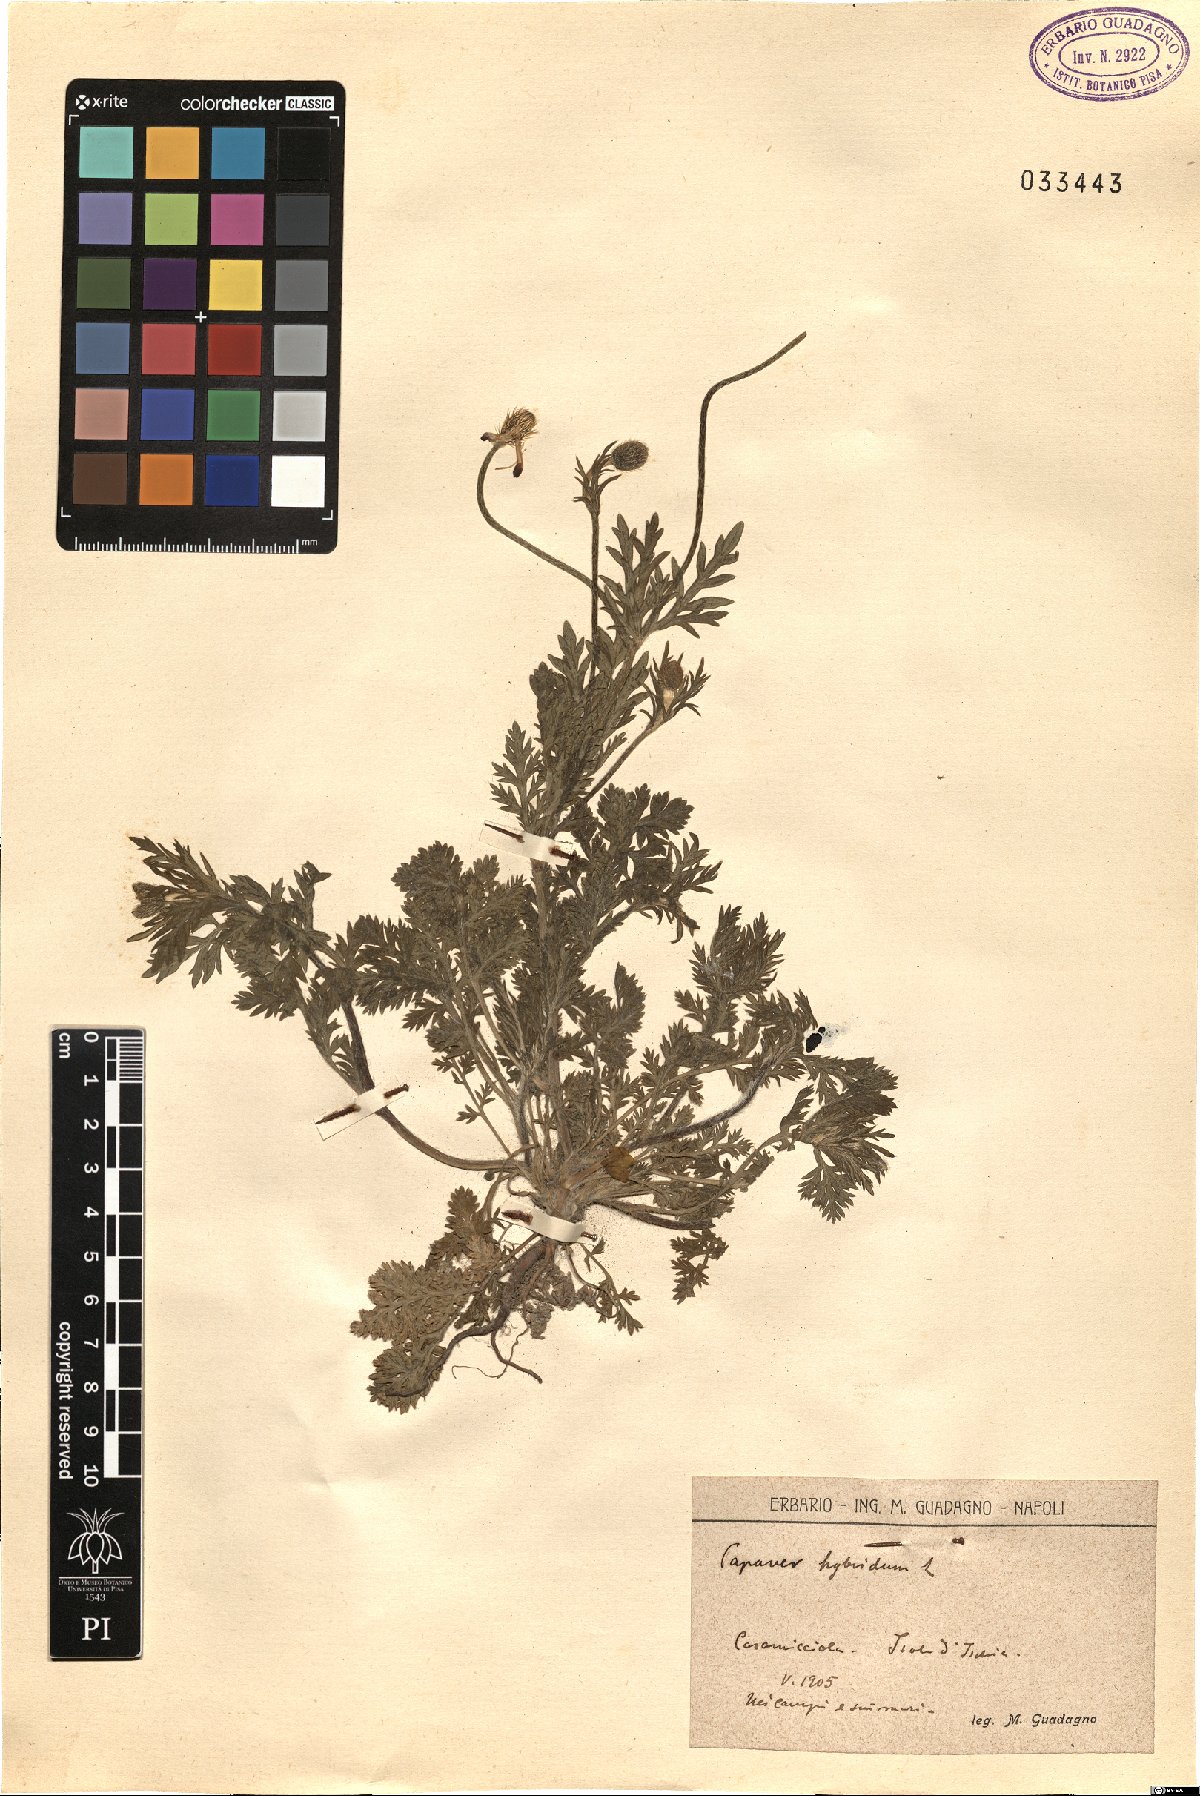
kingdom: Plantae
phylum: Tracheophyta
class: Magnoliopsida
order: Ranunculales
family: Papaveraceae
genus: Roemeria
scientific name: Roemeria hispida
